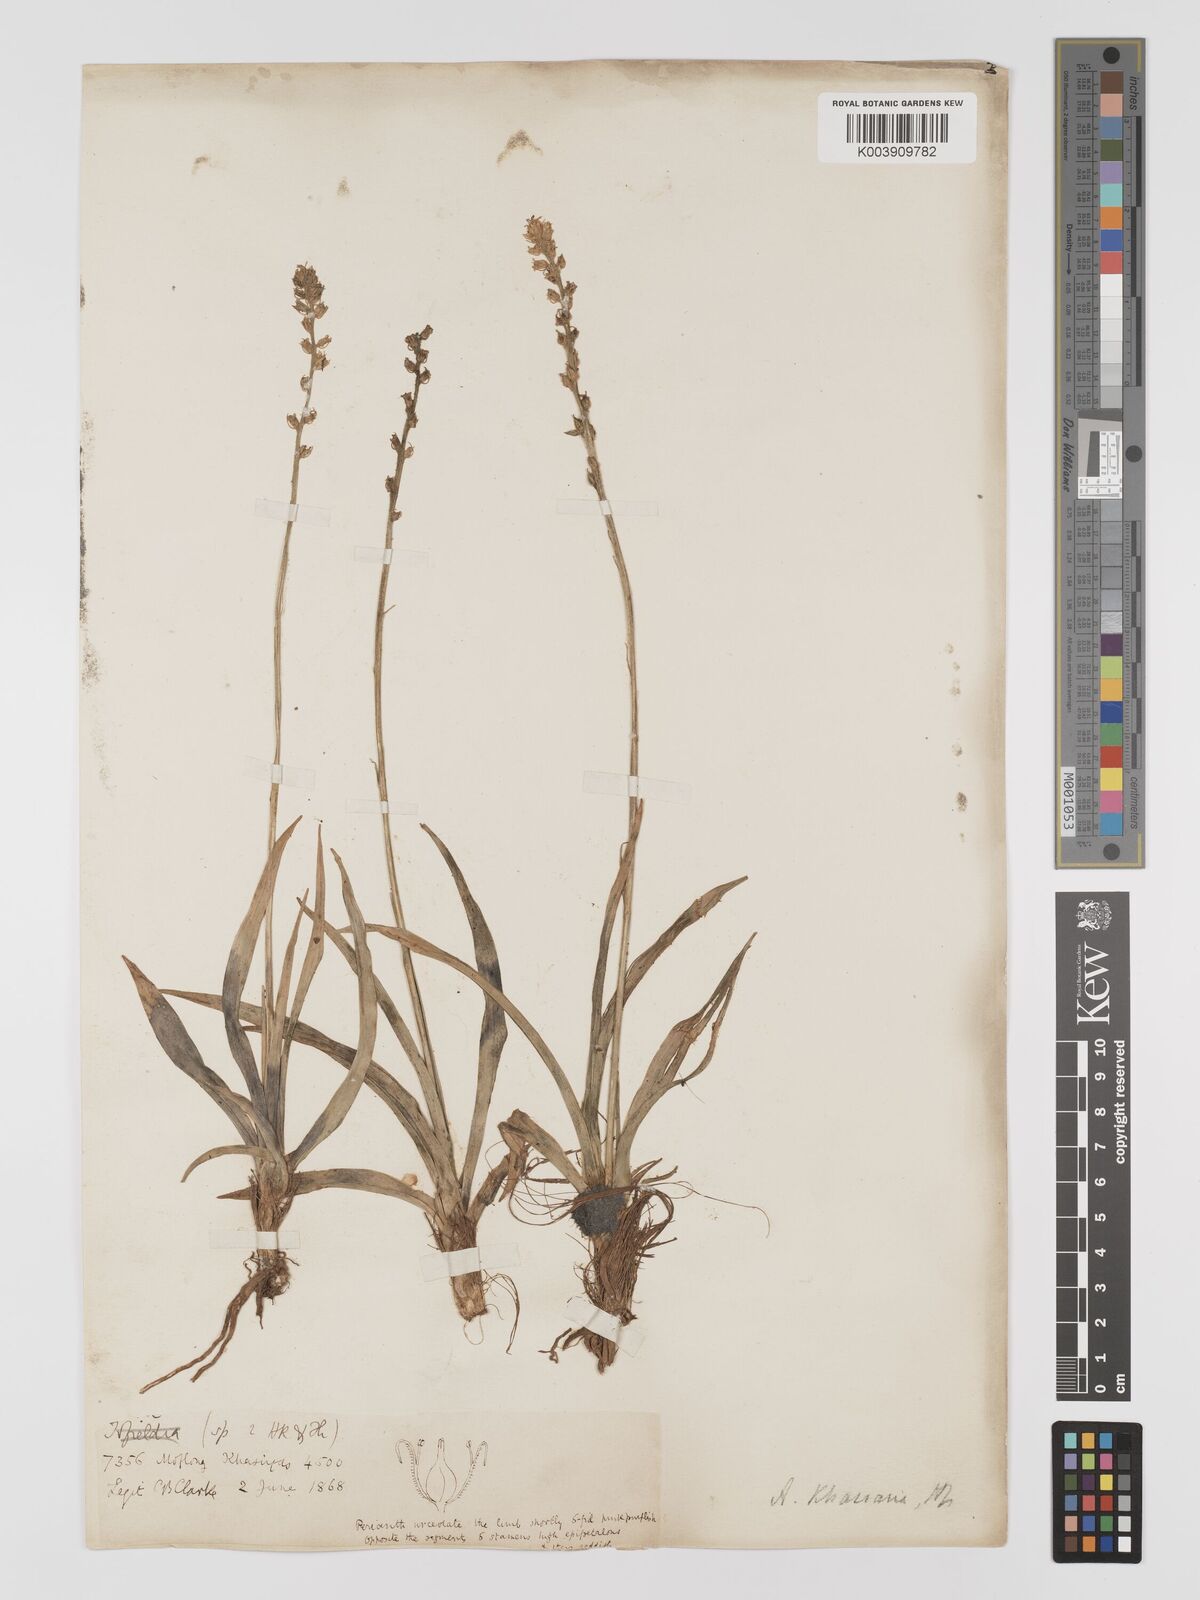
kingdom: Plantae
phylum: Tracheophyta
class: Liliopsida
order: Dioscoreales
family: Nartheciaceae
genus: Aletris
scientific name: Aletris pauciflora
